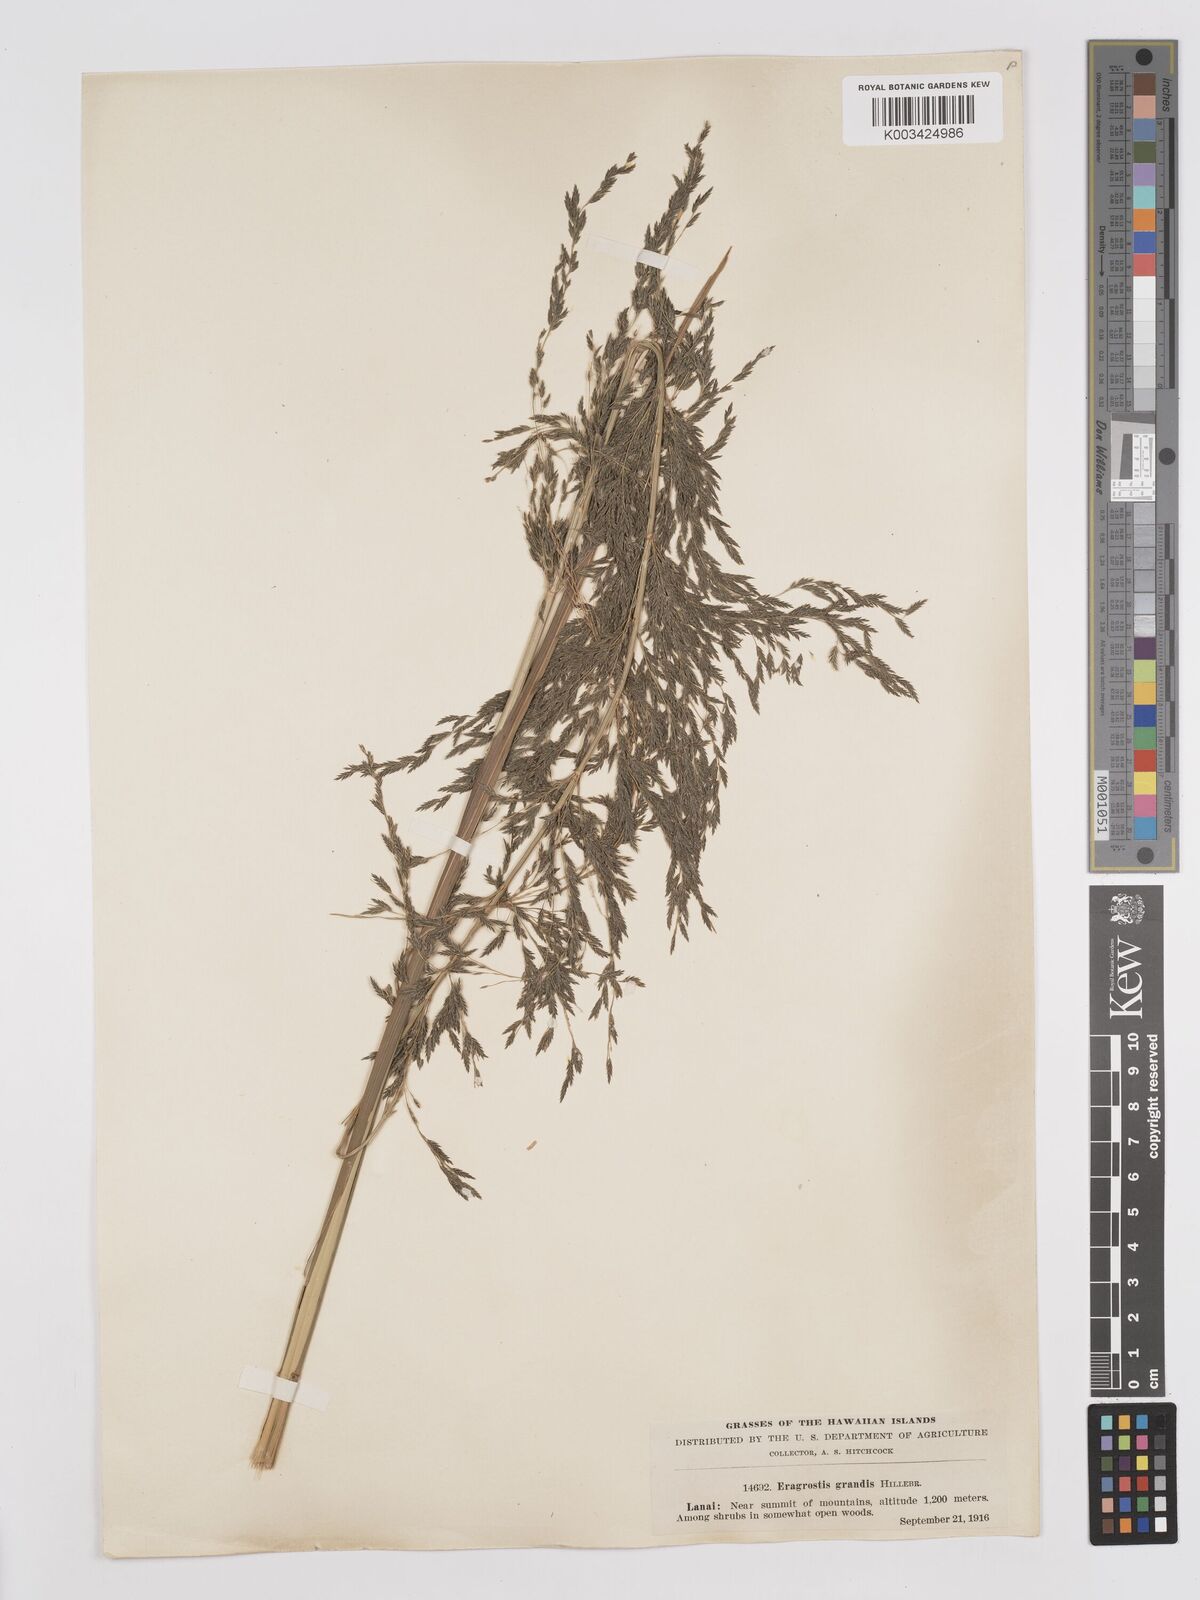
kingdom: Plantae
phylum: Tracheophyta
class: Liliopsida
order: Poales
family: Poaceae
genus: Eragrostis
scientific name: Eragrostis grandis
